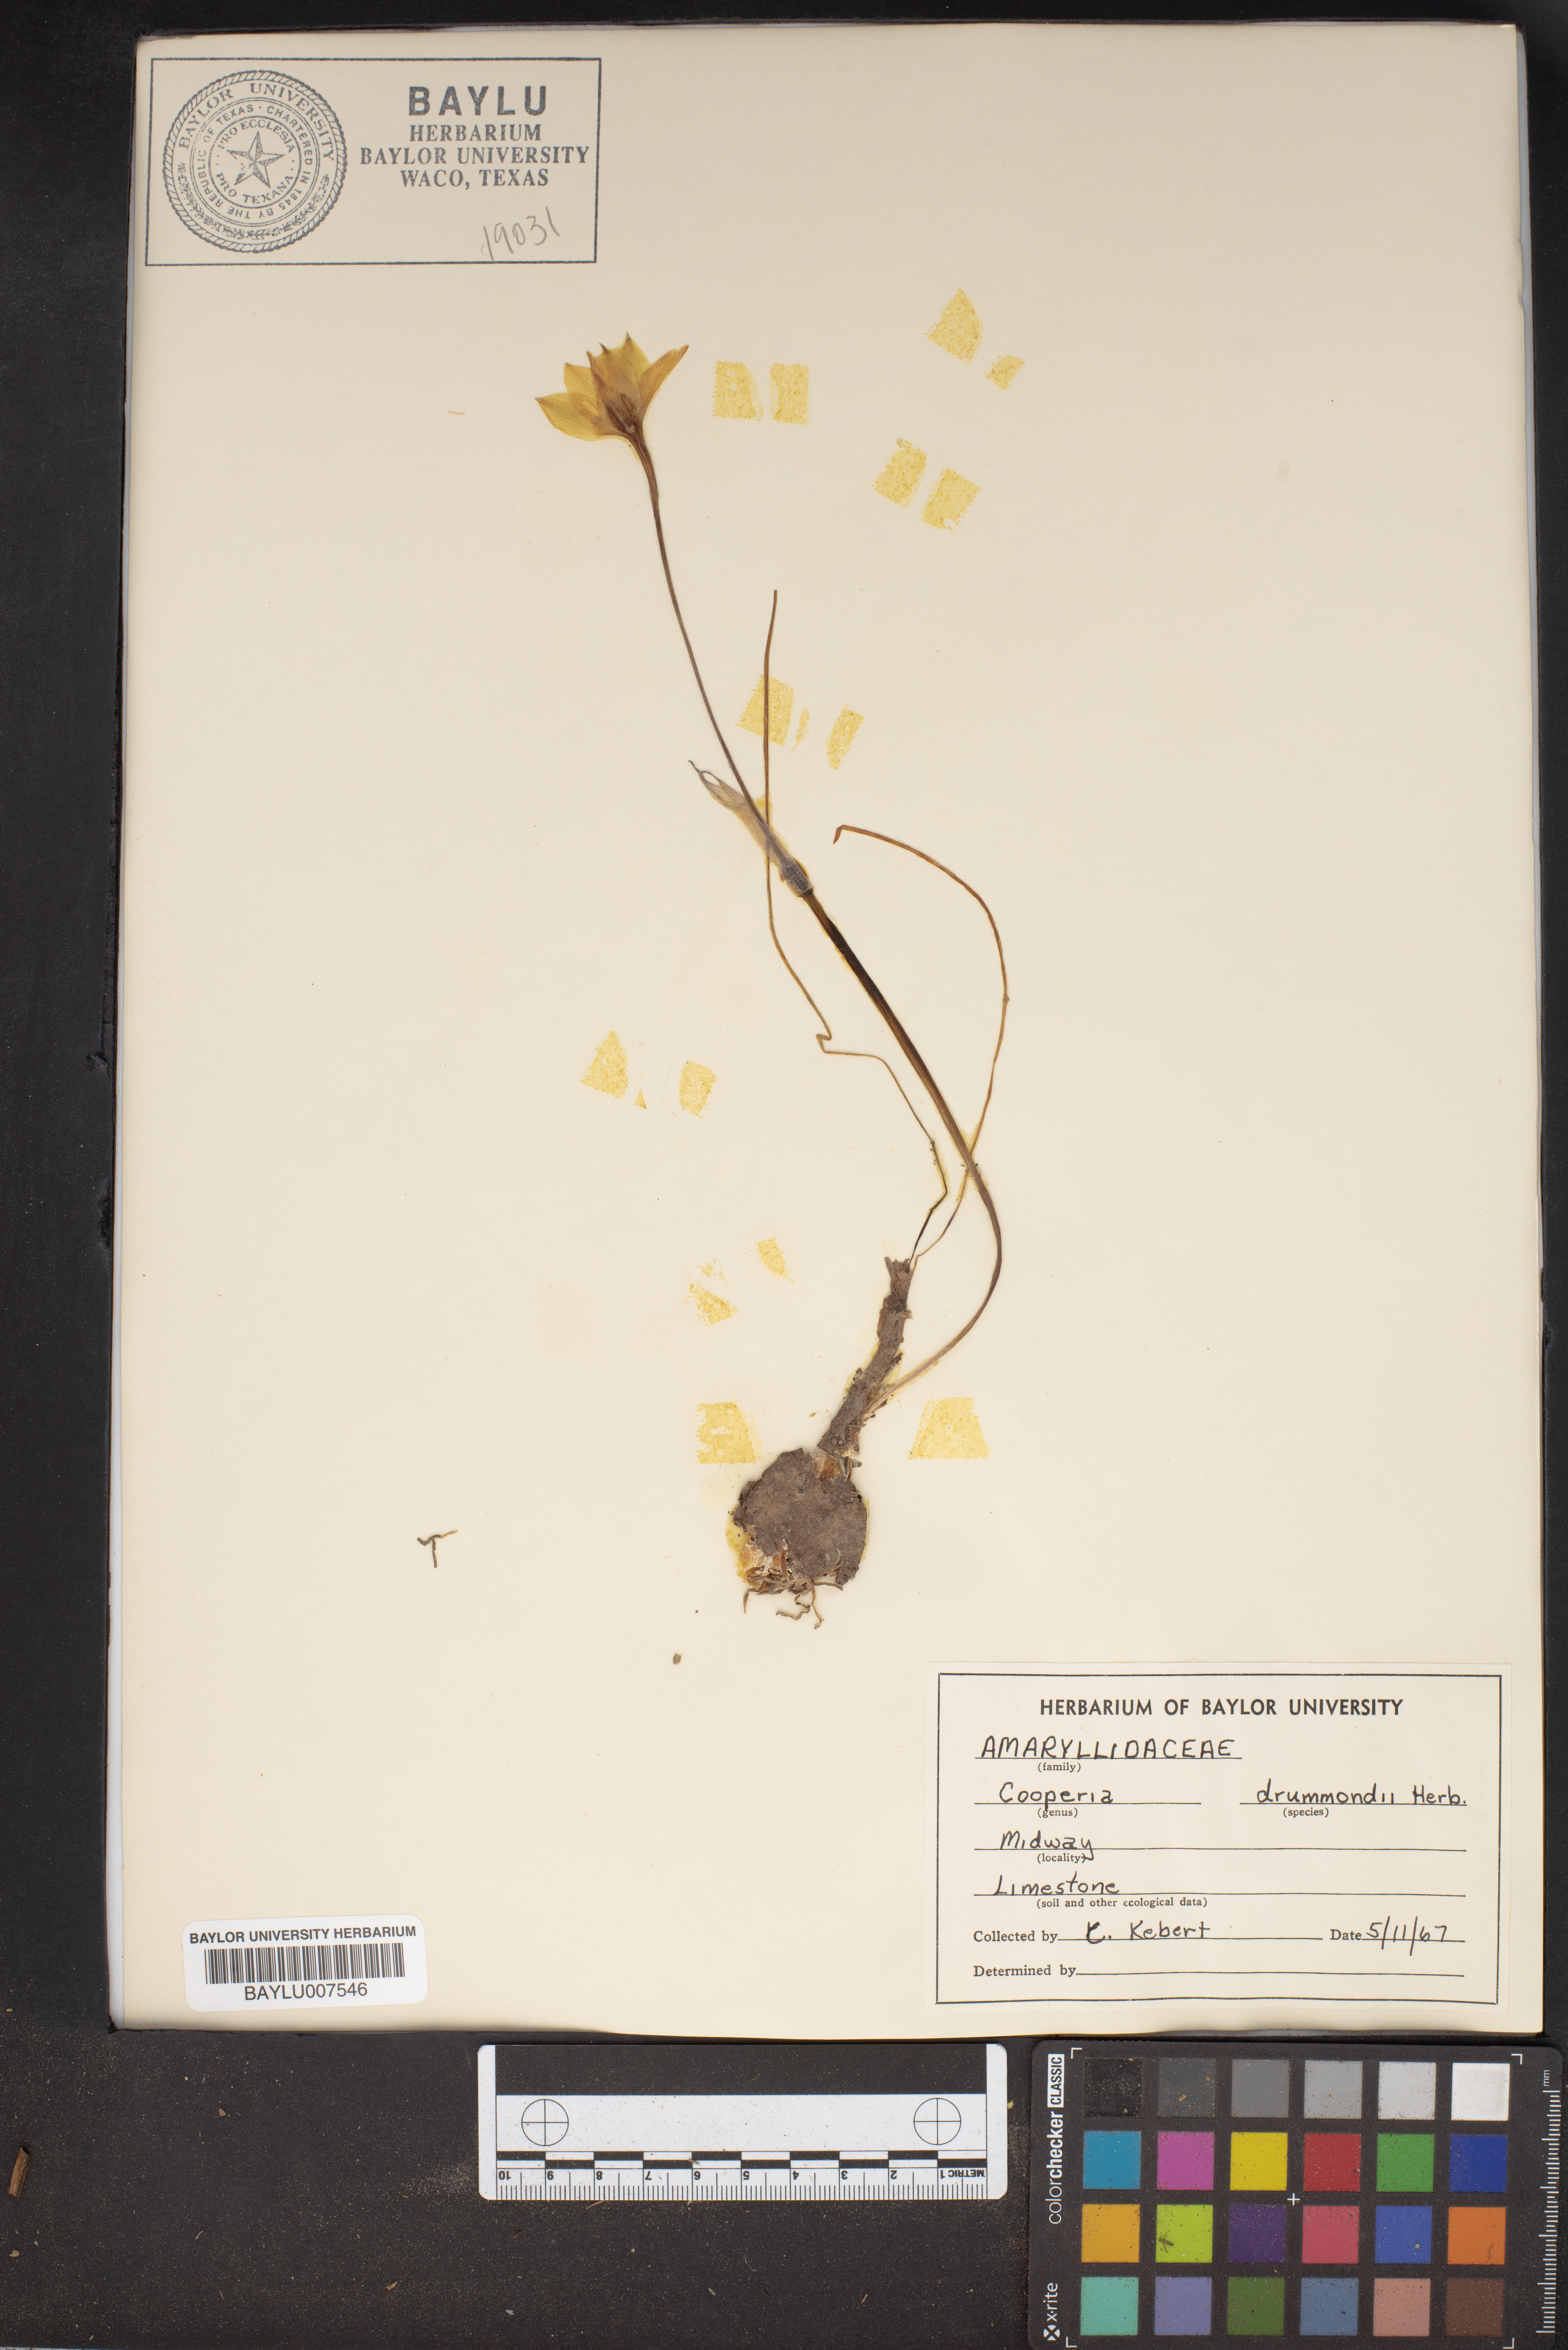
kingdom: Plantae
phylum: Tracheophyta
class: Liliopsida
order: Asparagales
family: Amaryllidaceae
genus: Zephyranthes
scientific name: Zephyranthes chlorosolen
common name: Evening rain-lily
